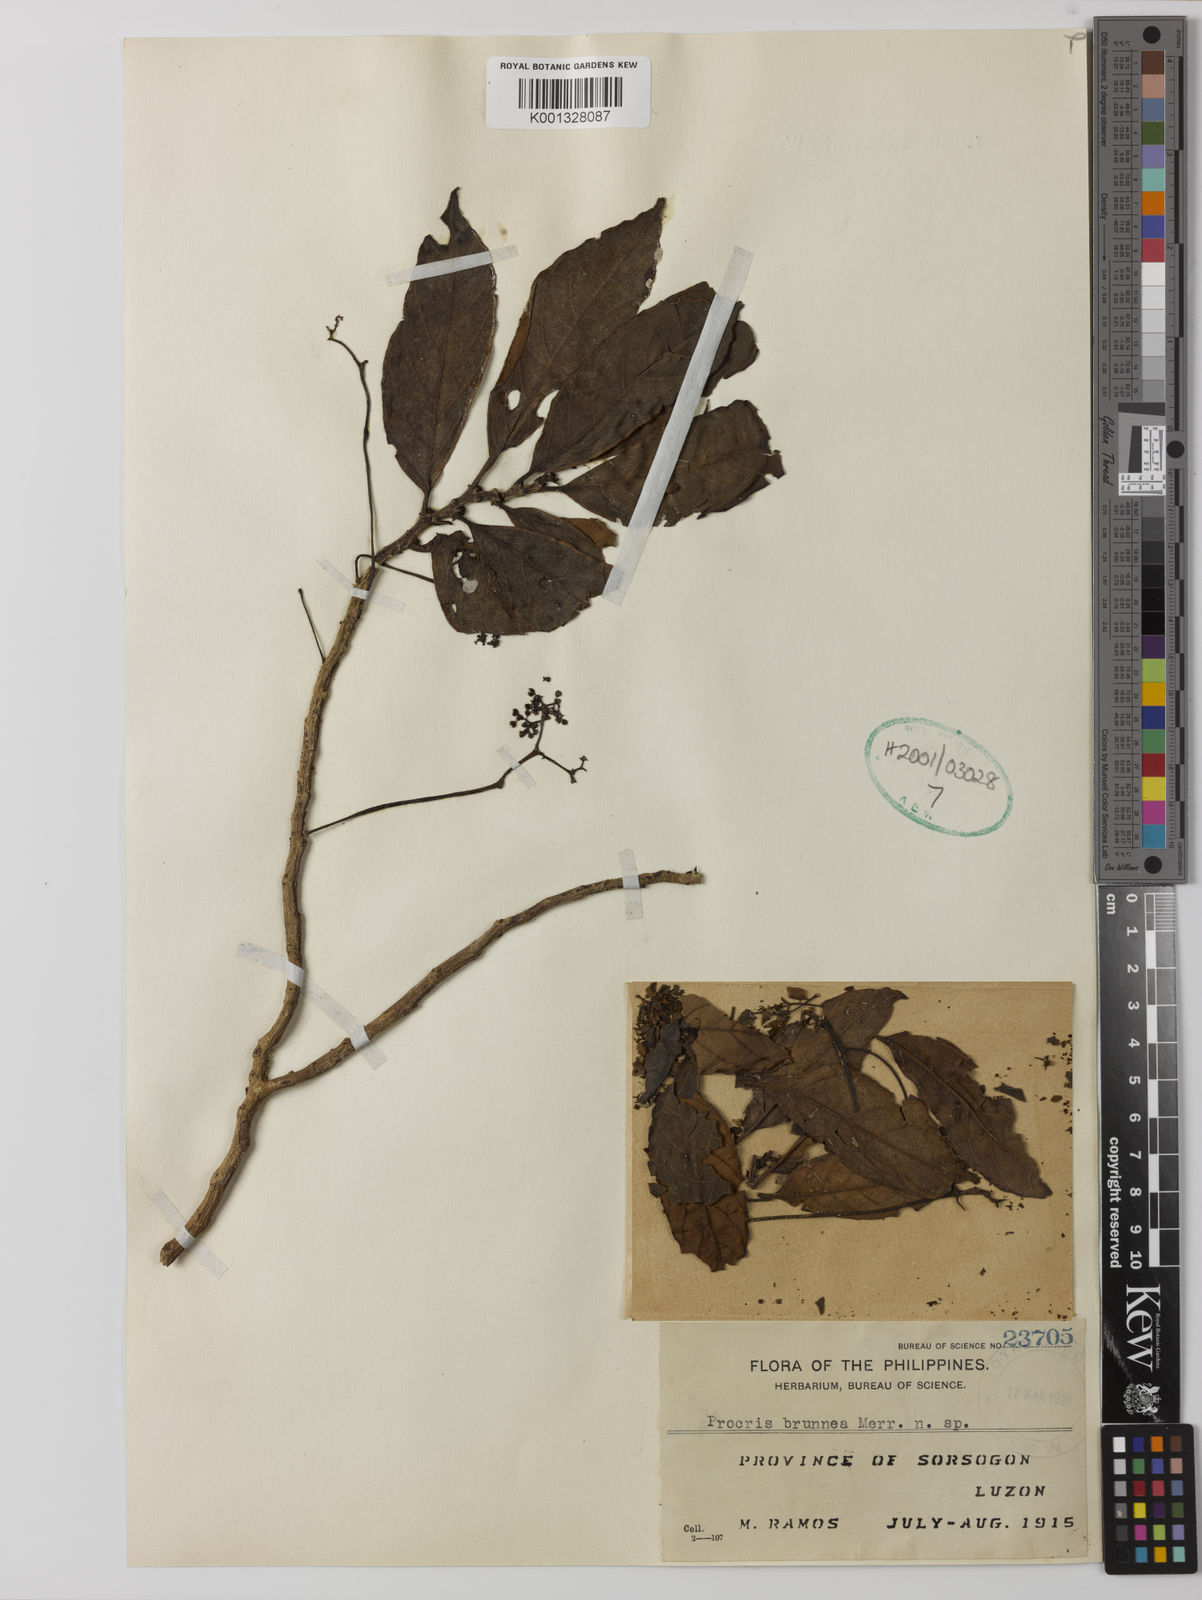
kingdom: Plantae
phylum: Tracheophyta
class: Magnoliopsida
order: Rosales
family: Urticaceae
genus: Procris
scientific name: Procris frutescens
